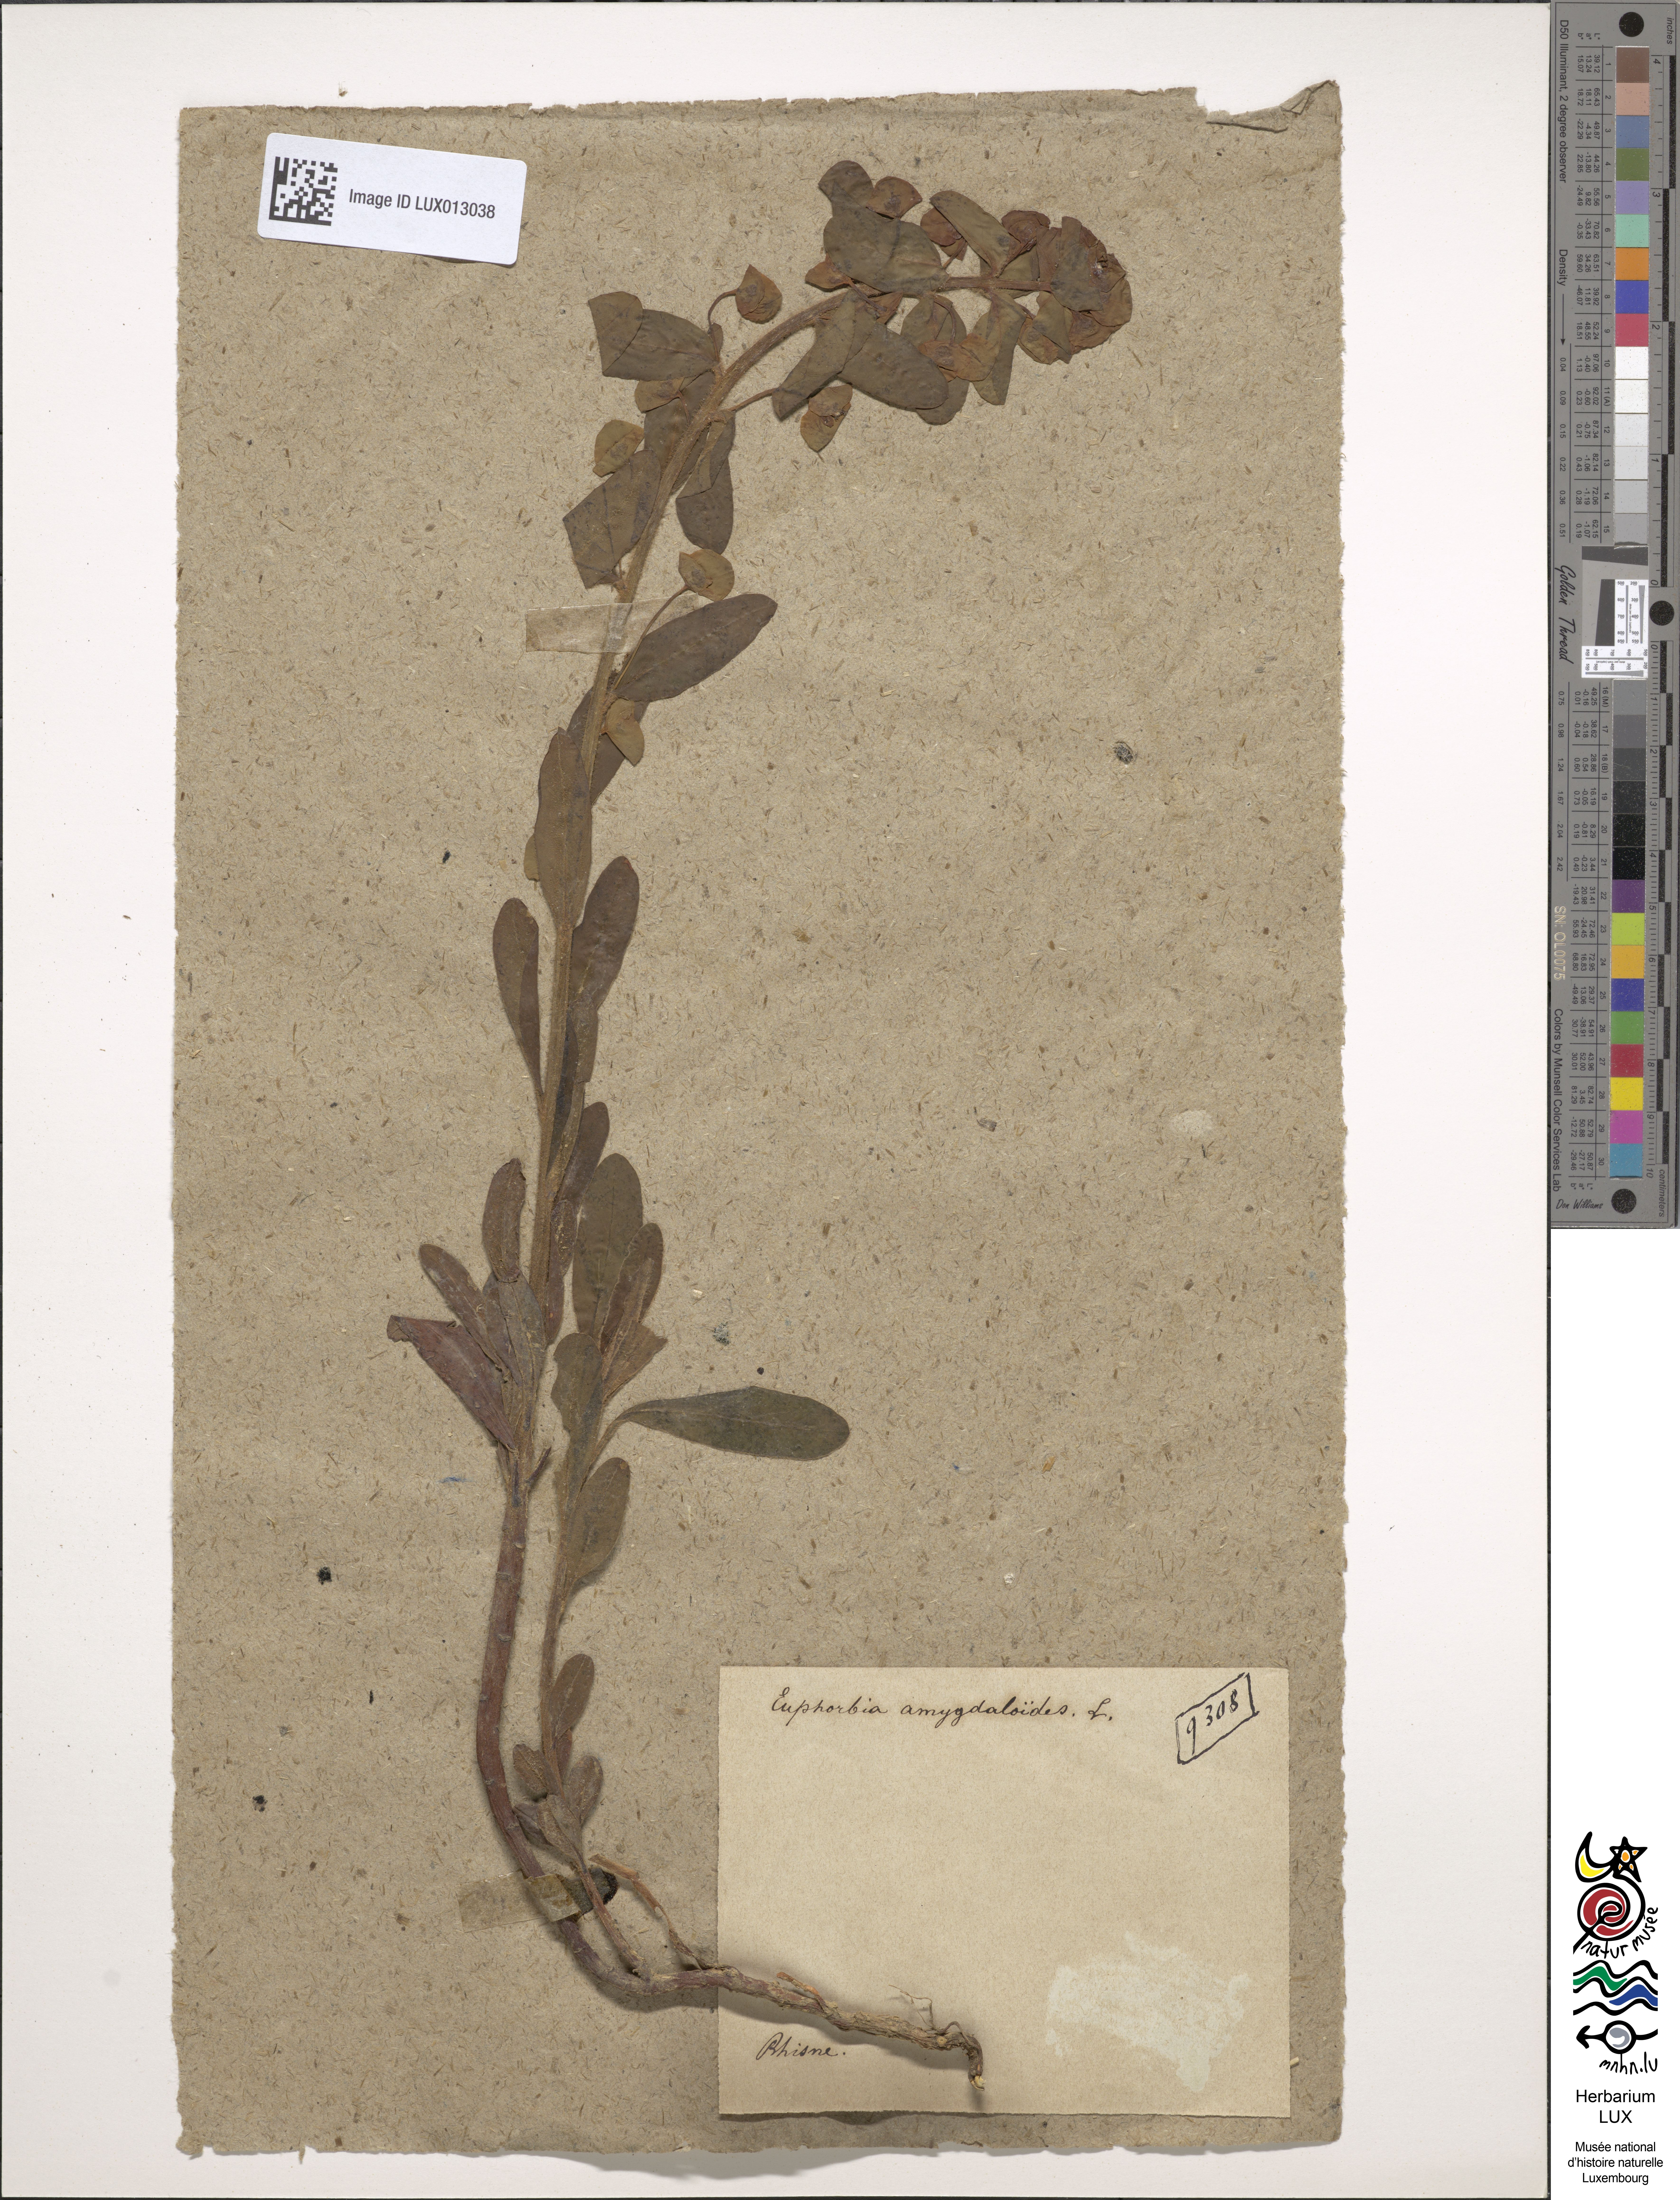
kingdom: Plantae
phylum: Tracheophyta
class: Magnoliopsida
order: Malpighiales
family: Euphorbiaceae
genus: Euphorbia
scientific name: Euphorbia amygdaloides
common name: Wood spurge
